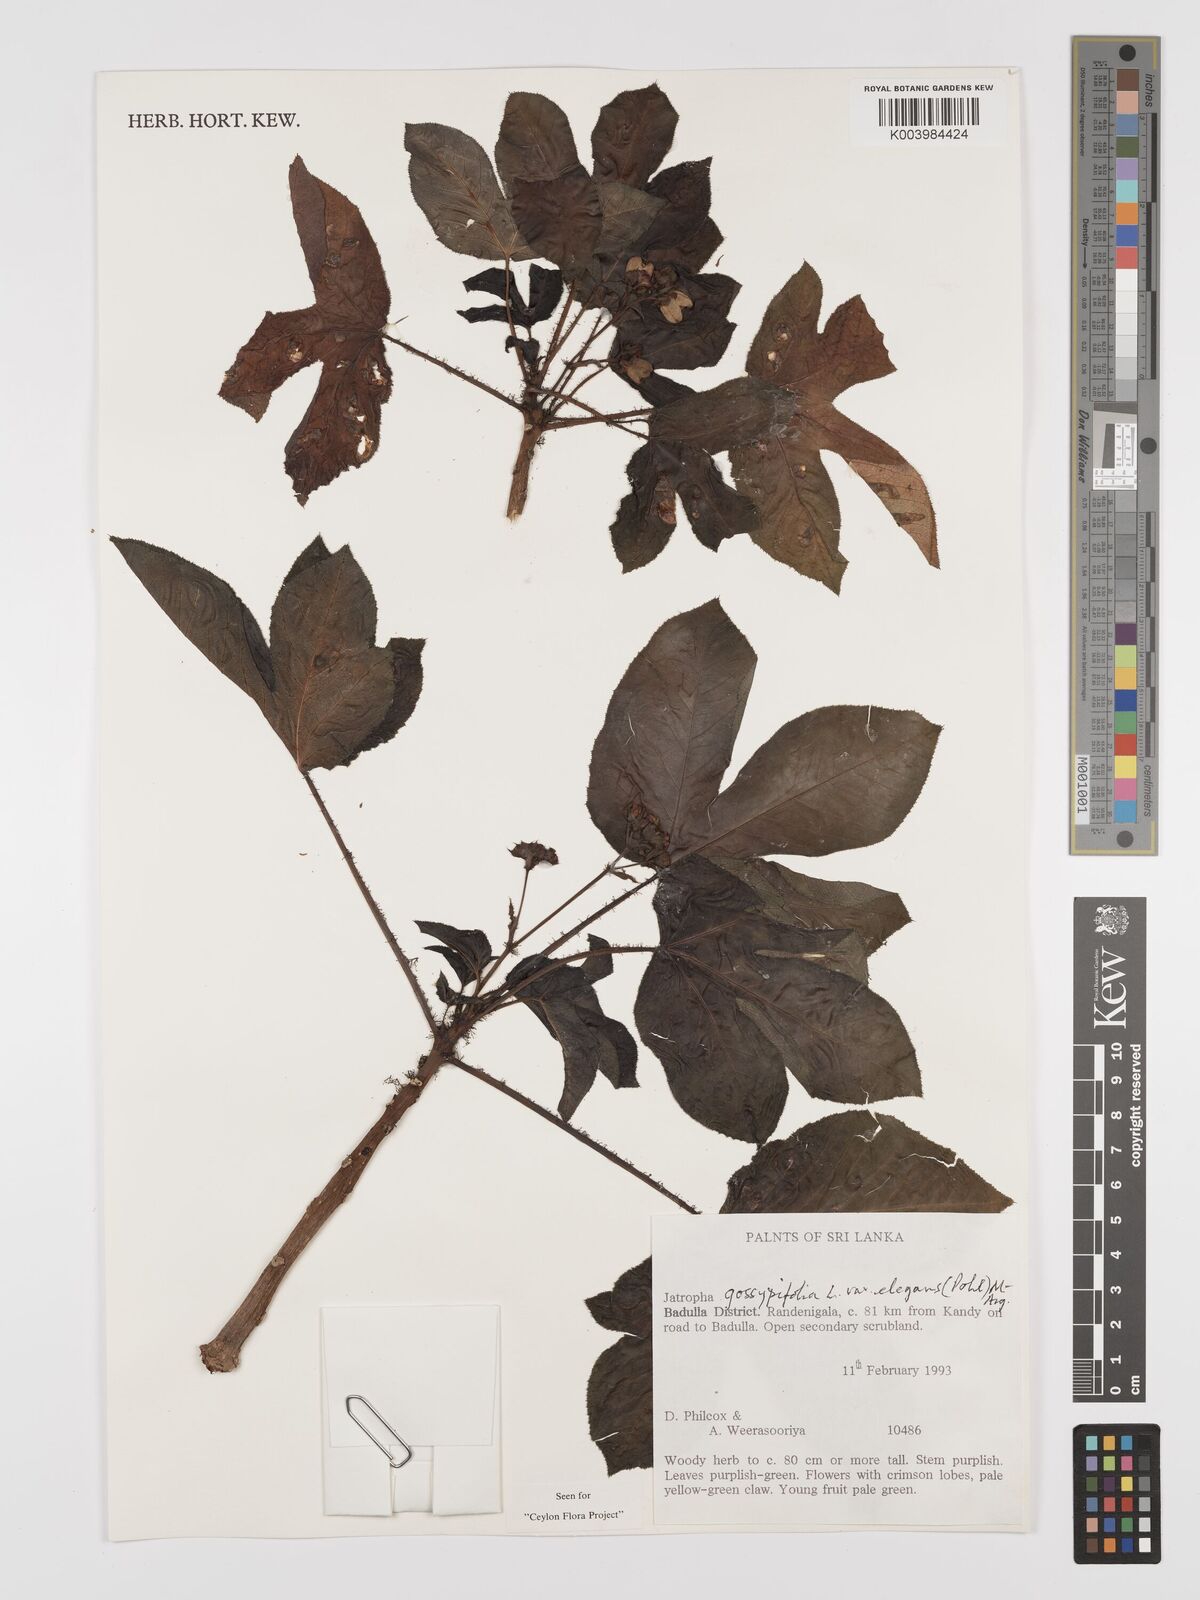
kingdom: Plantae
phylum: Tracheophyta
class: Magnoliopsida
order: Malpighiales
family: Euphorbiaceae
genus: Jatropha
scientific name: Jatropha gossypiifolia
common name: Bellyache bush
